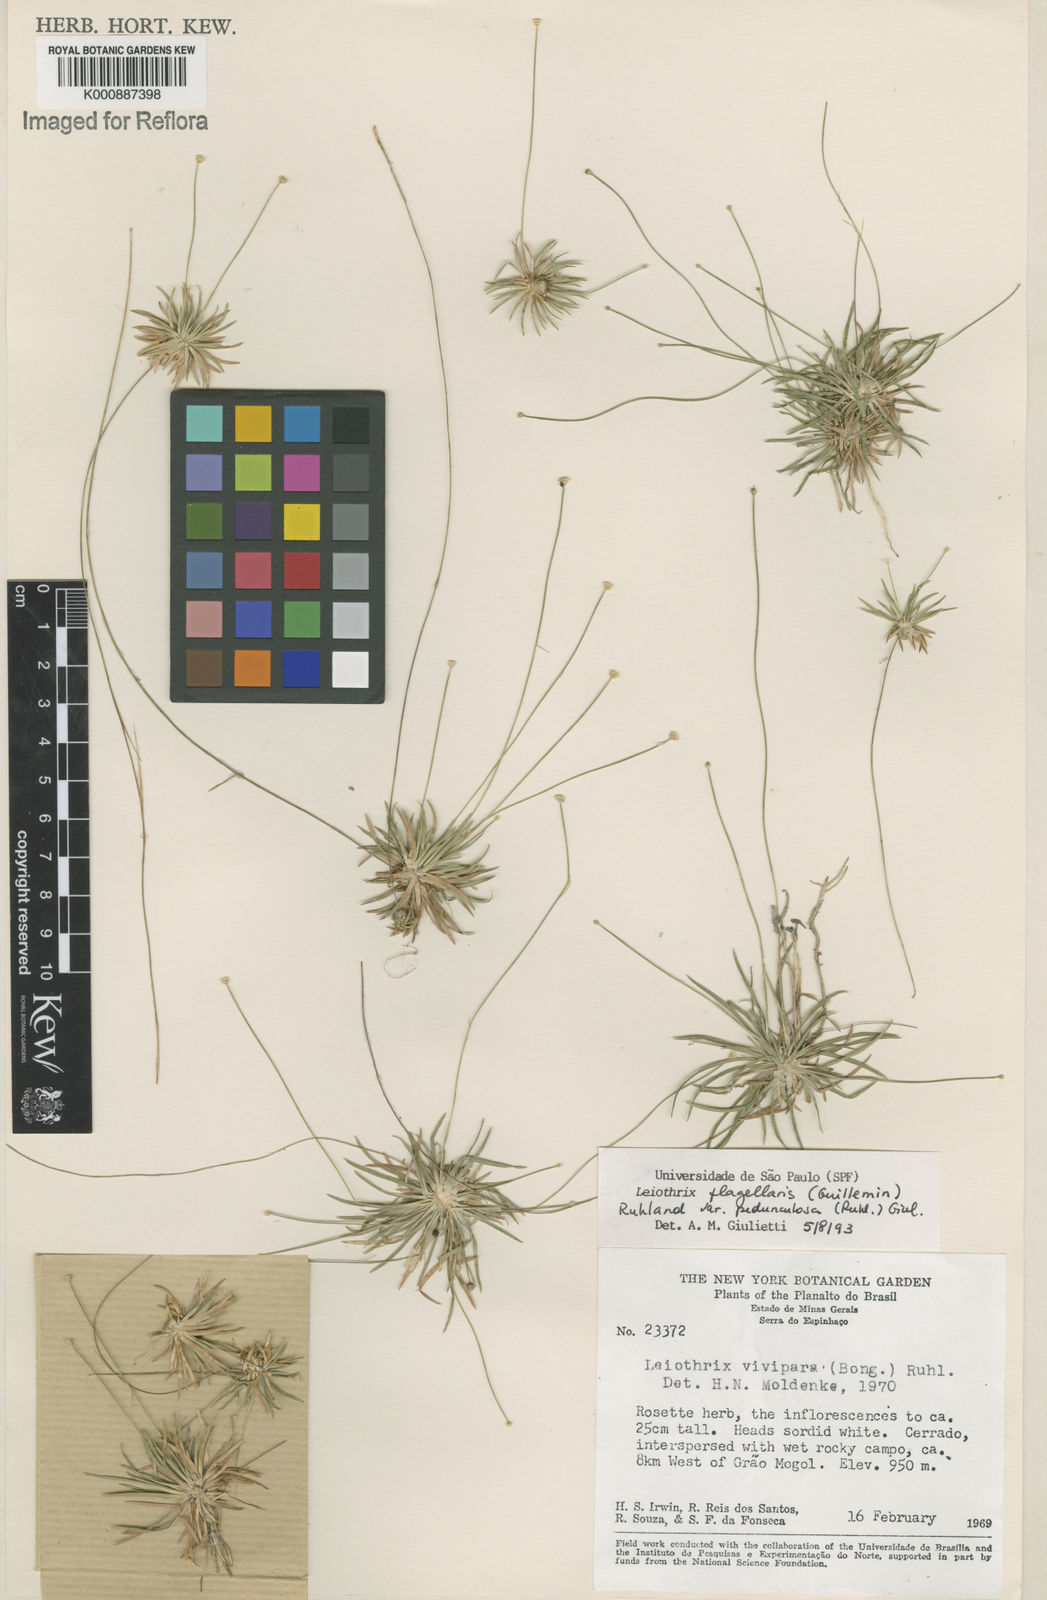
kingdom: Plantae
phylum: Tracheophyta
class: Liliopsida
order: Poales
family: Eriocaulaceae
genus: Leiothrix
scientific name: Leiothrix flagellaris
